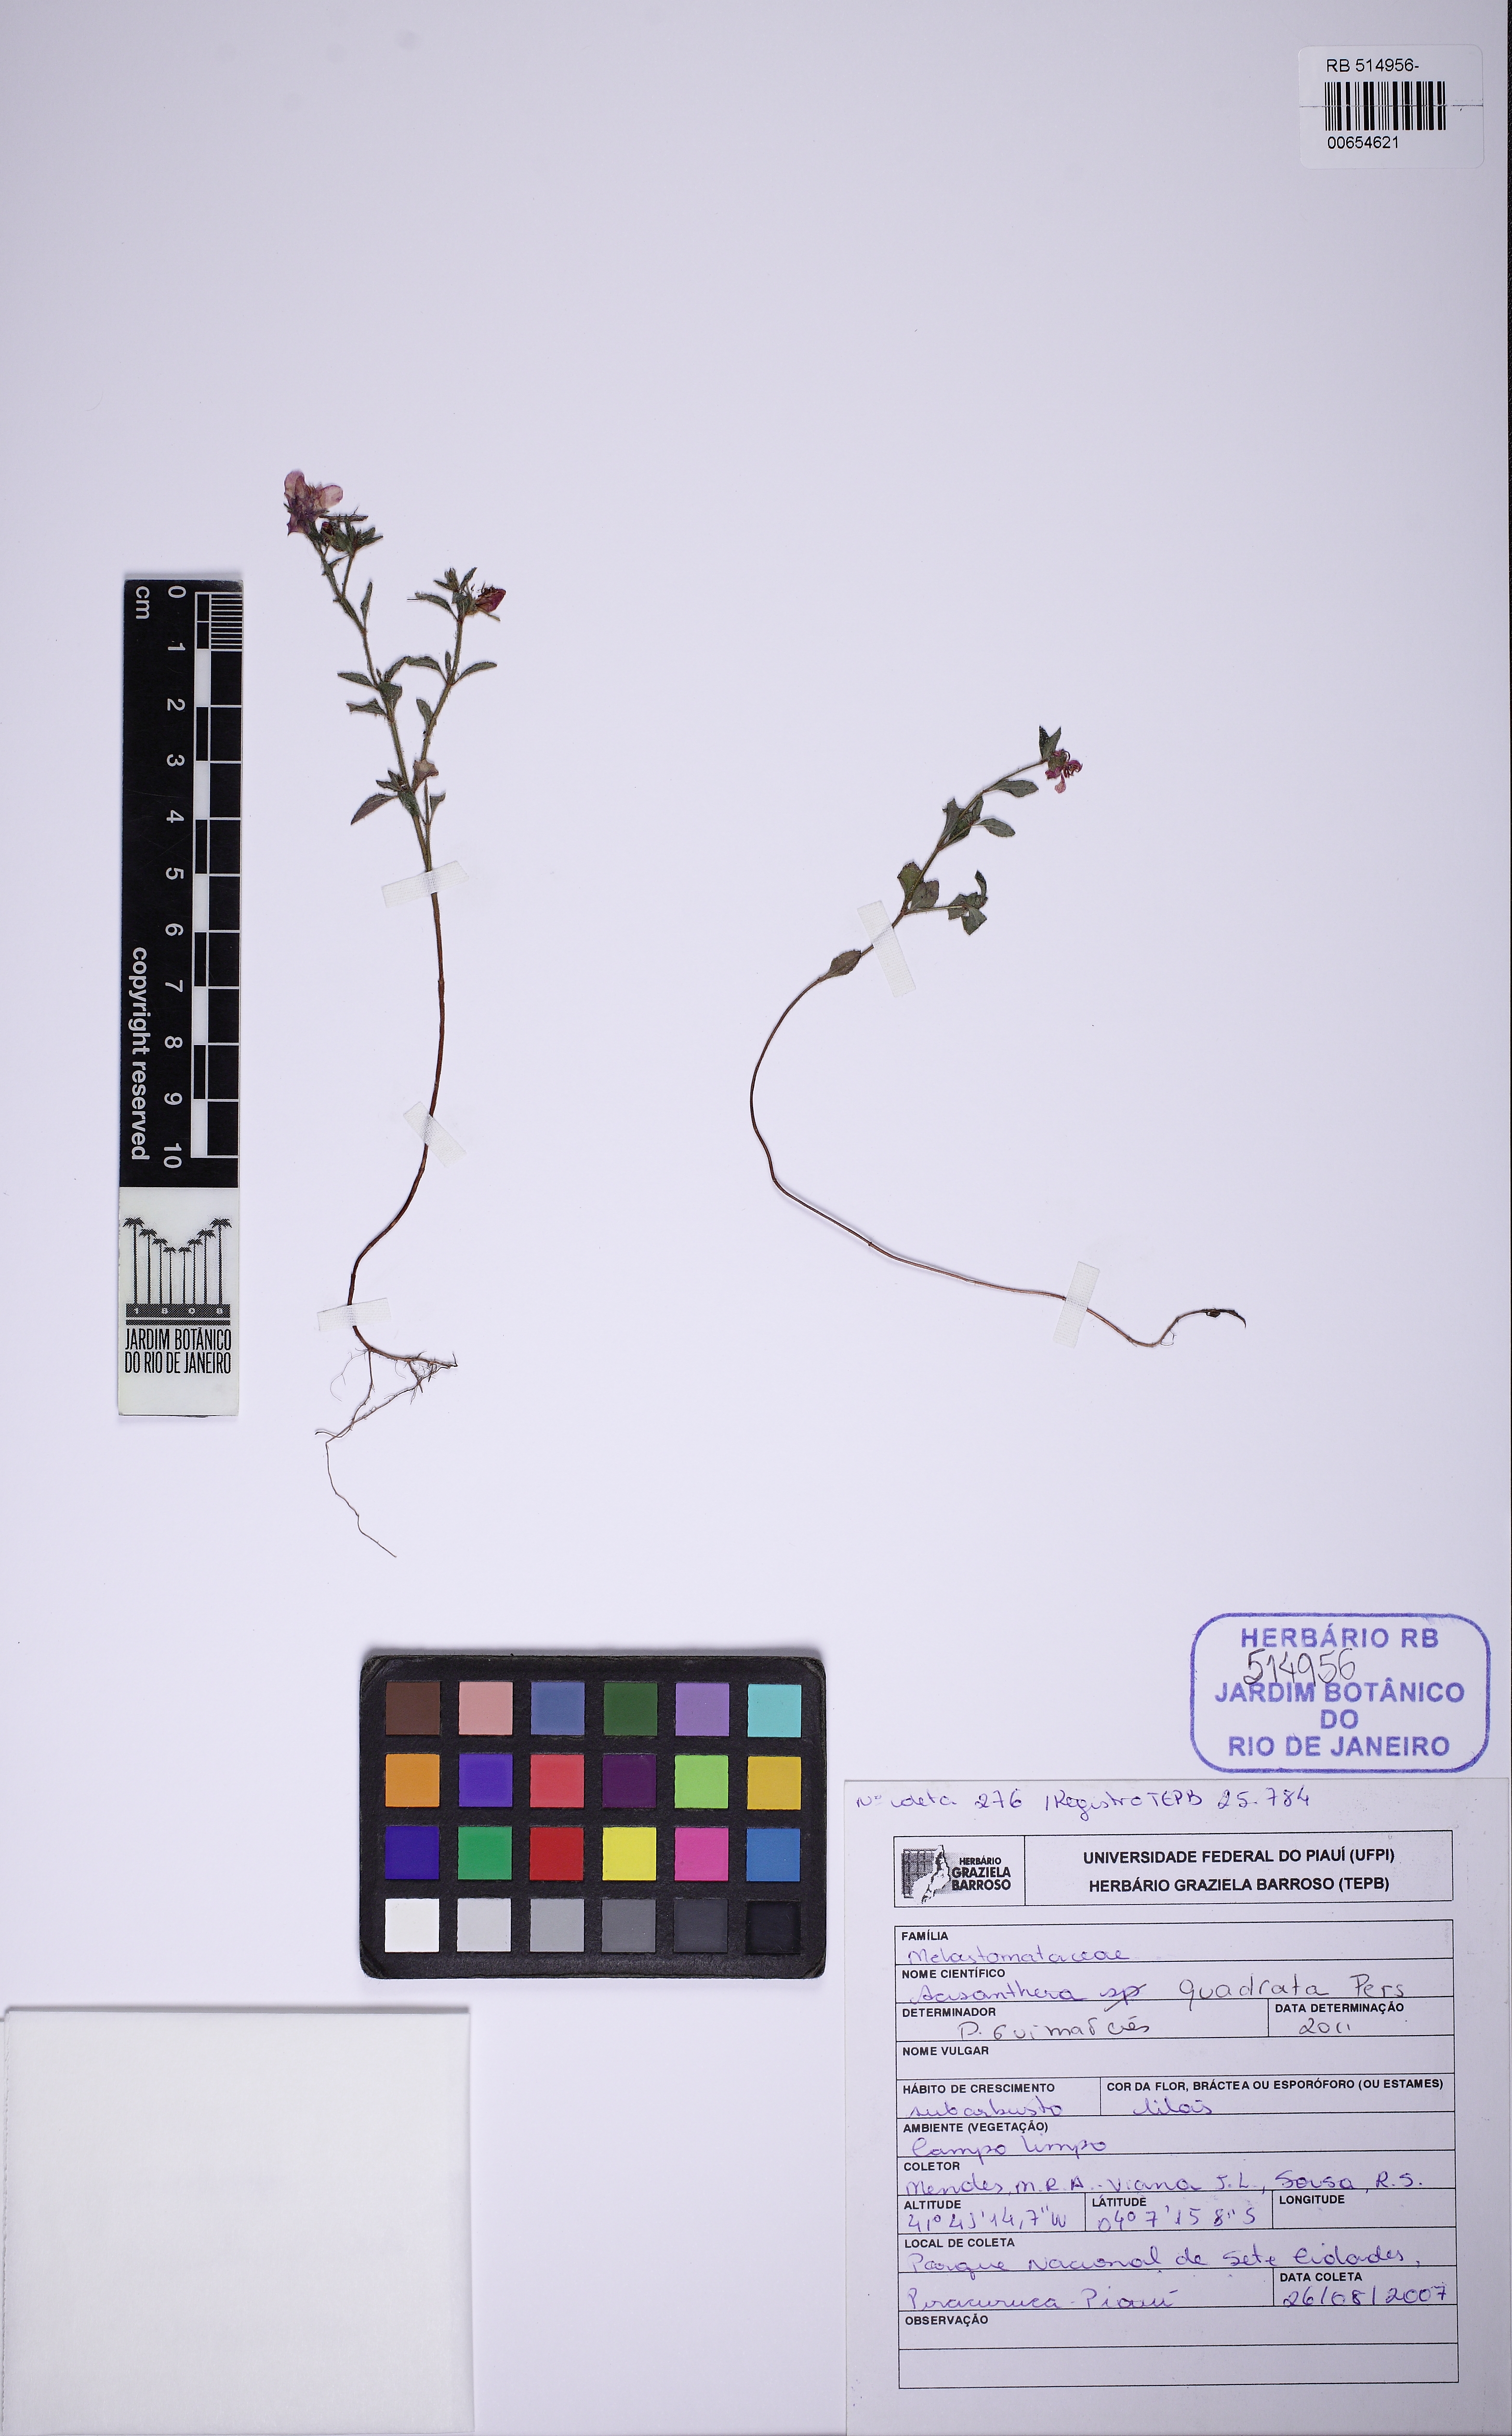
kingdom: Plantae
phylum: Tracheophyta
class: Magnoliopsida
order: Myrtales
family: Melastomataceae
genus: Acisanthera
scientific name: Acisanthera quadrata
